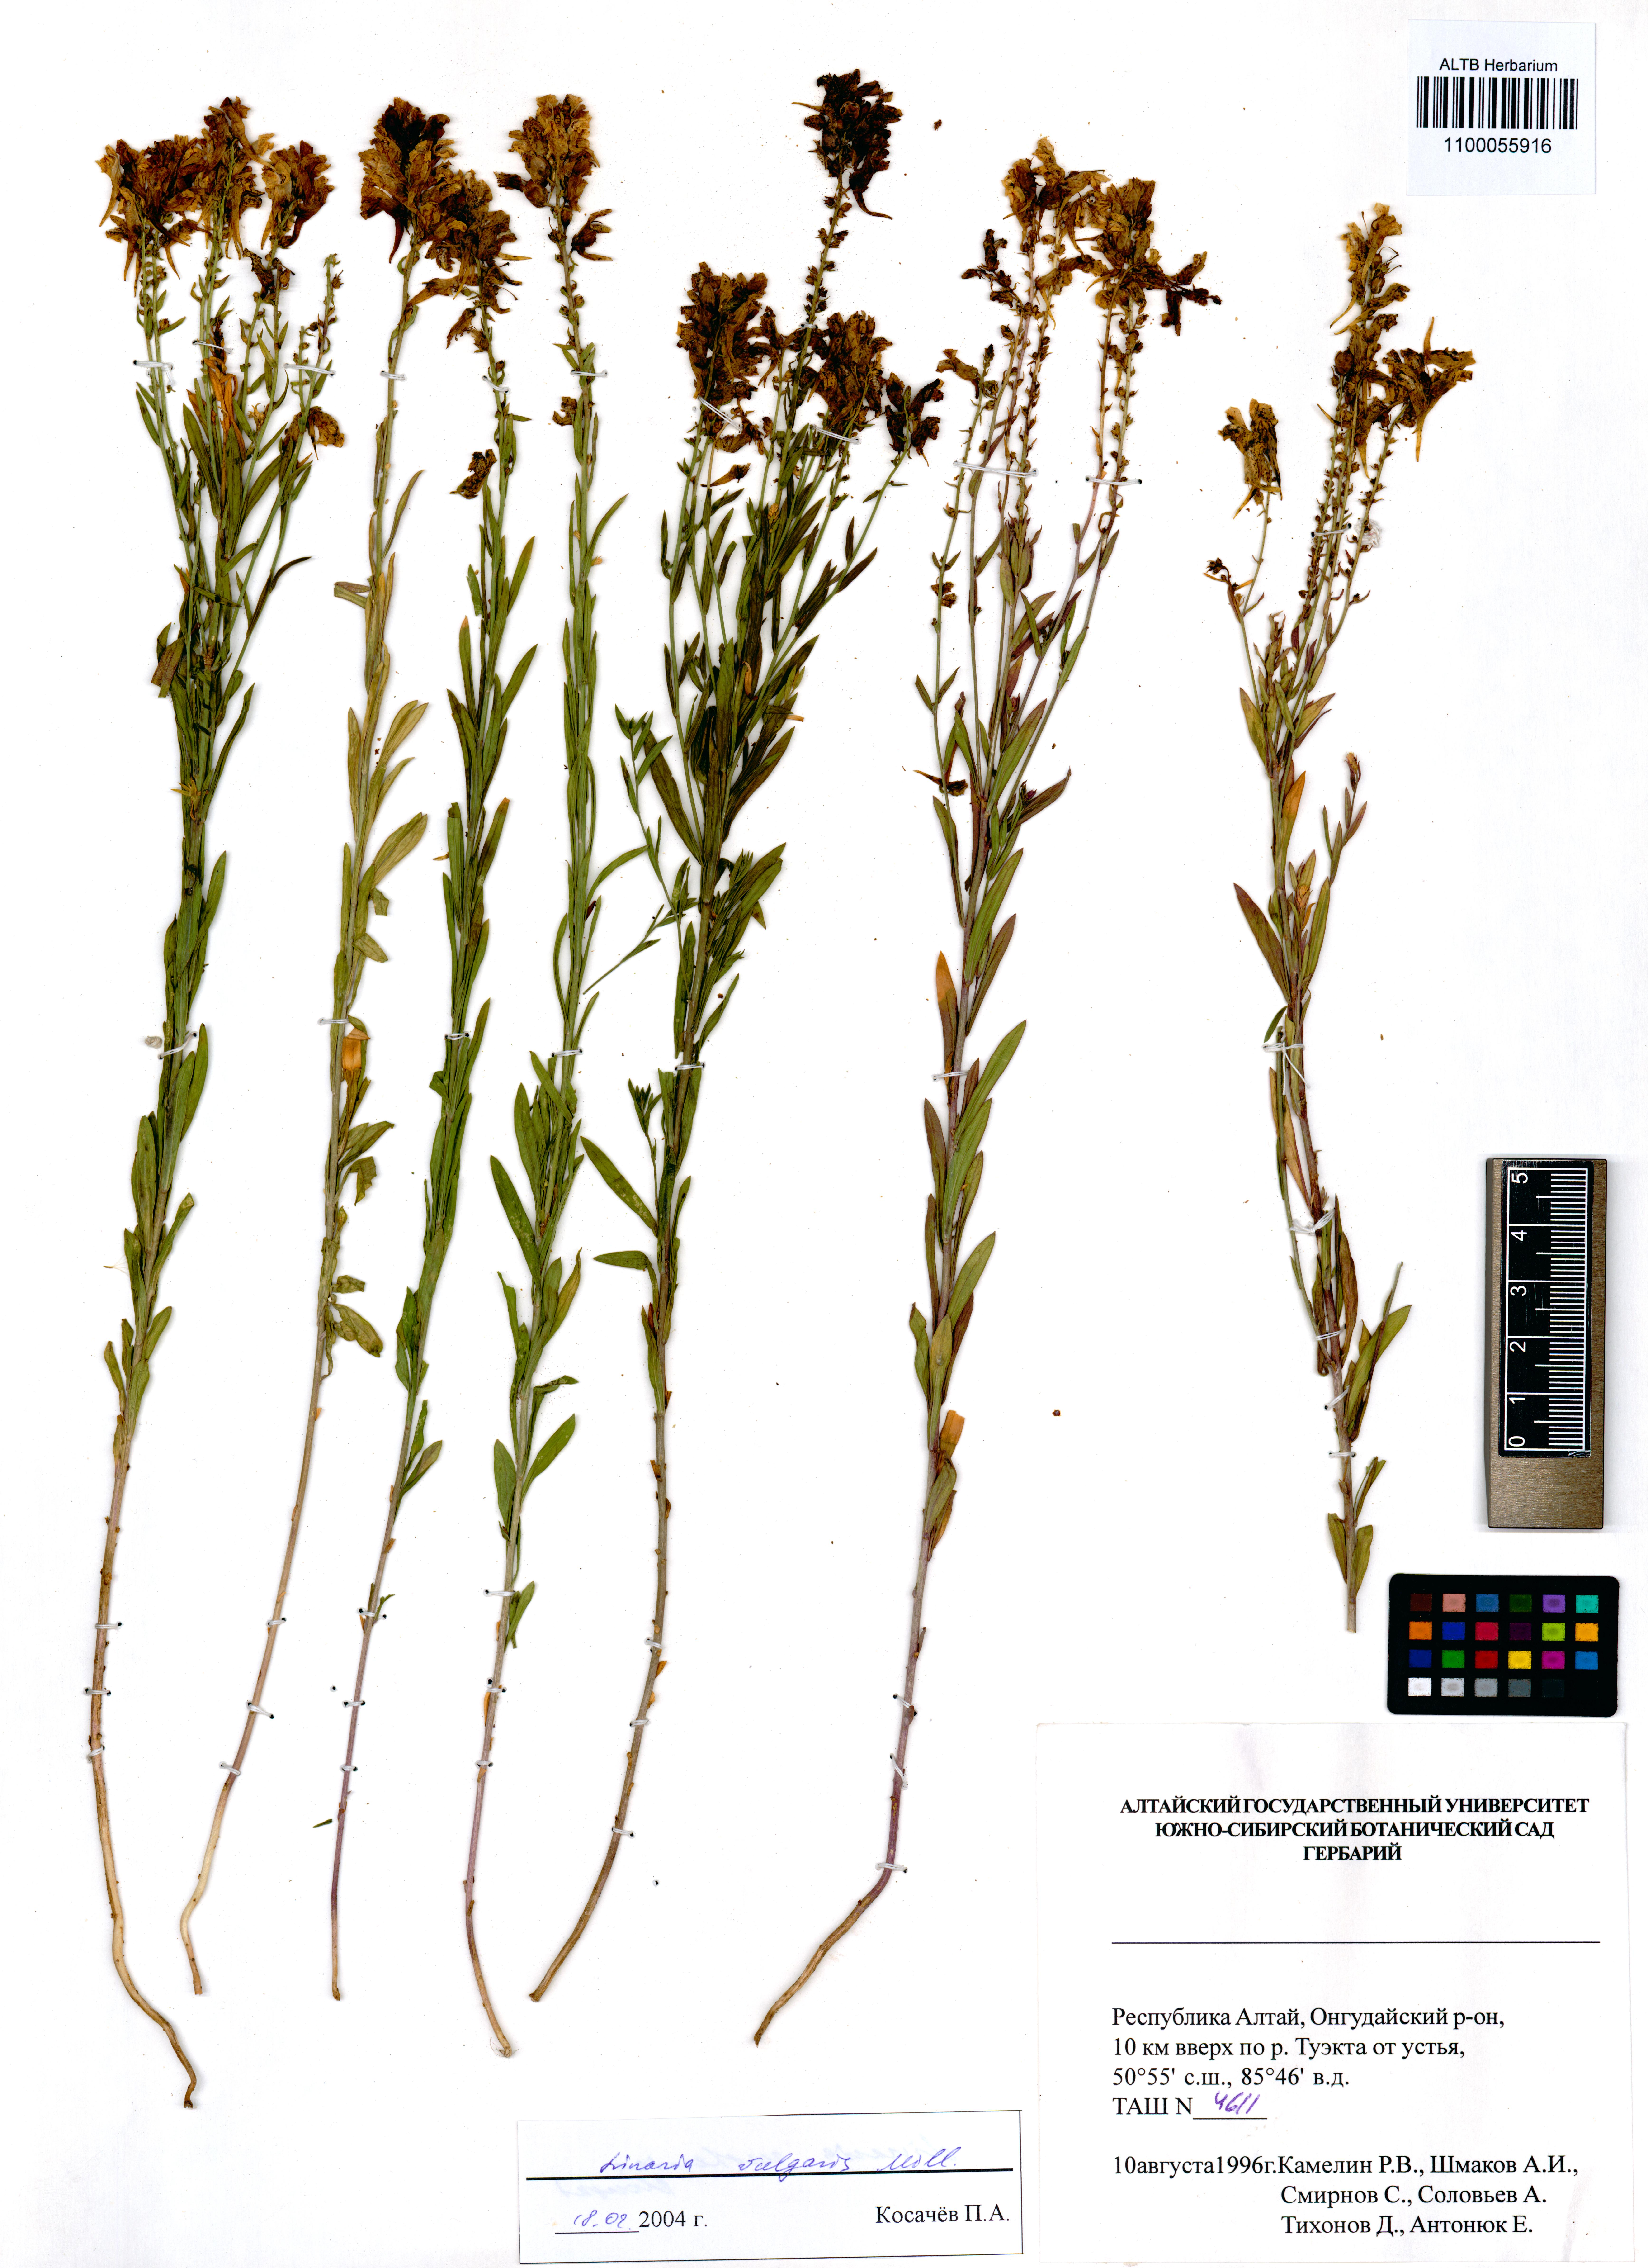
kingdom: Plantae
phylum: Tracheophyta
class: Magnoliopsida
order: Lamiales
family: Plantaginaceae
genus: Linaria
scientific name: Linaria vulgaris
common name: Butter and eggs
